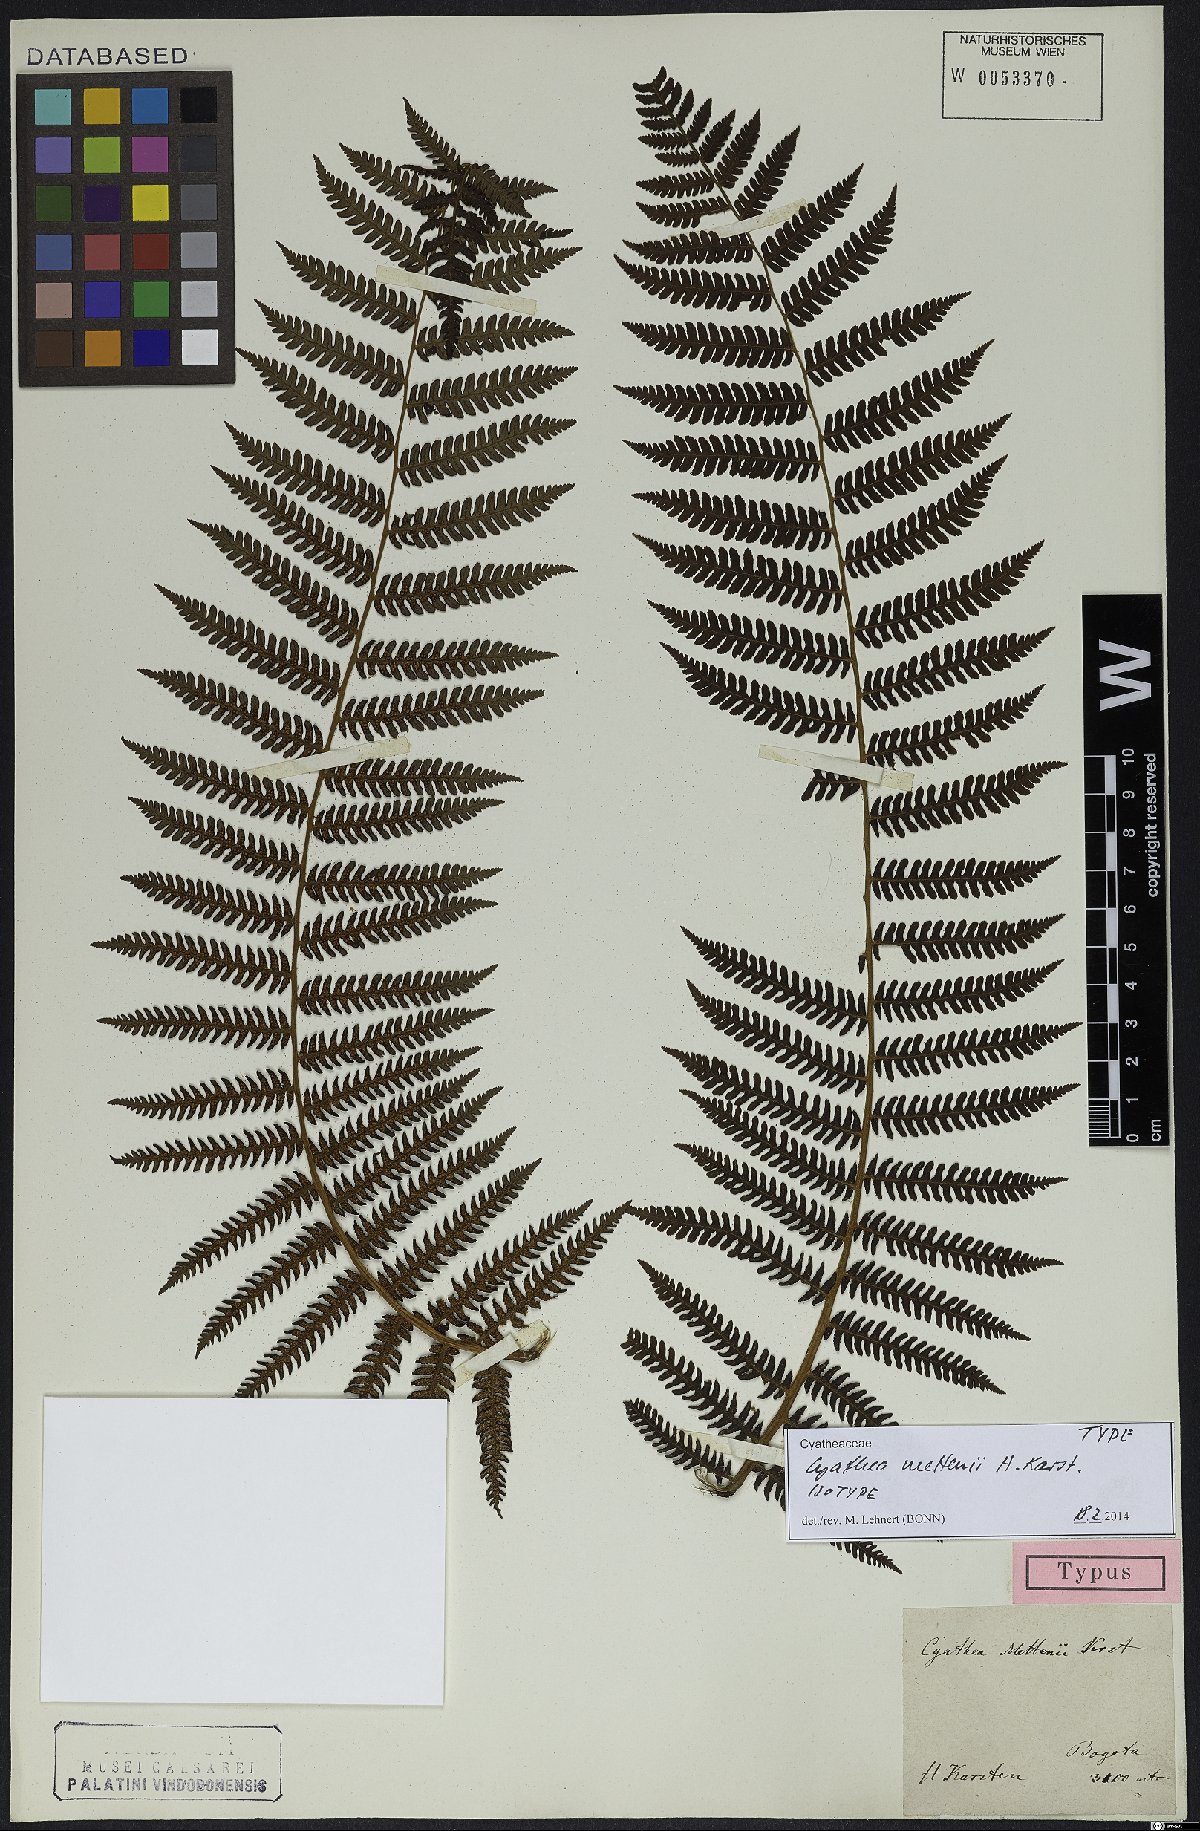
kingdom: Plantae
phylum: Tracheophyta
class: Polypodiopsida
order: Cyatheales
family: Cyatheaceae
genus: Cyathea
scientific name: Cyathea caracasana
